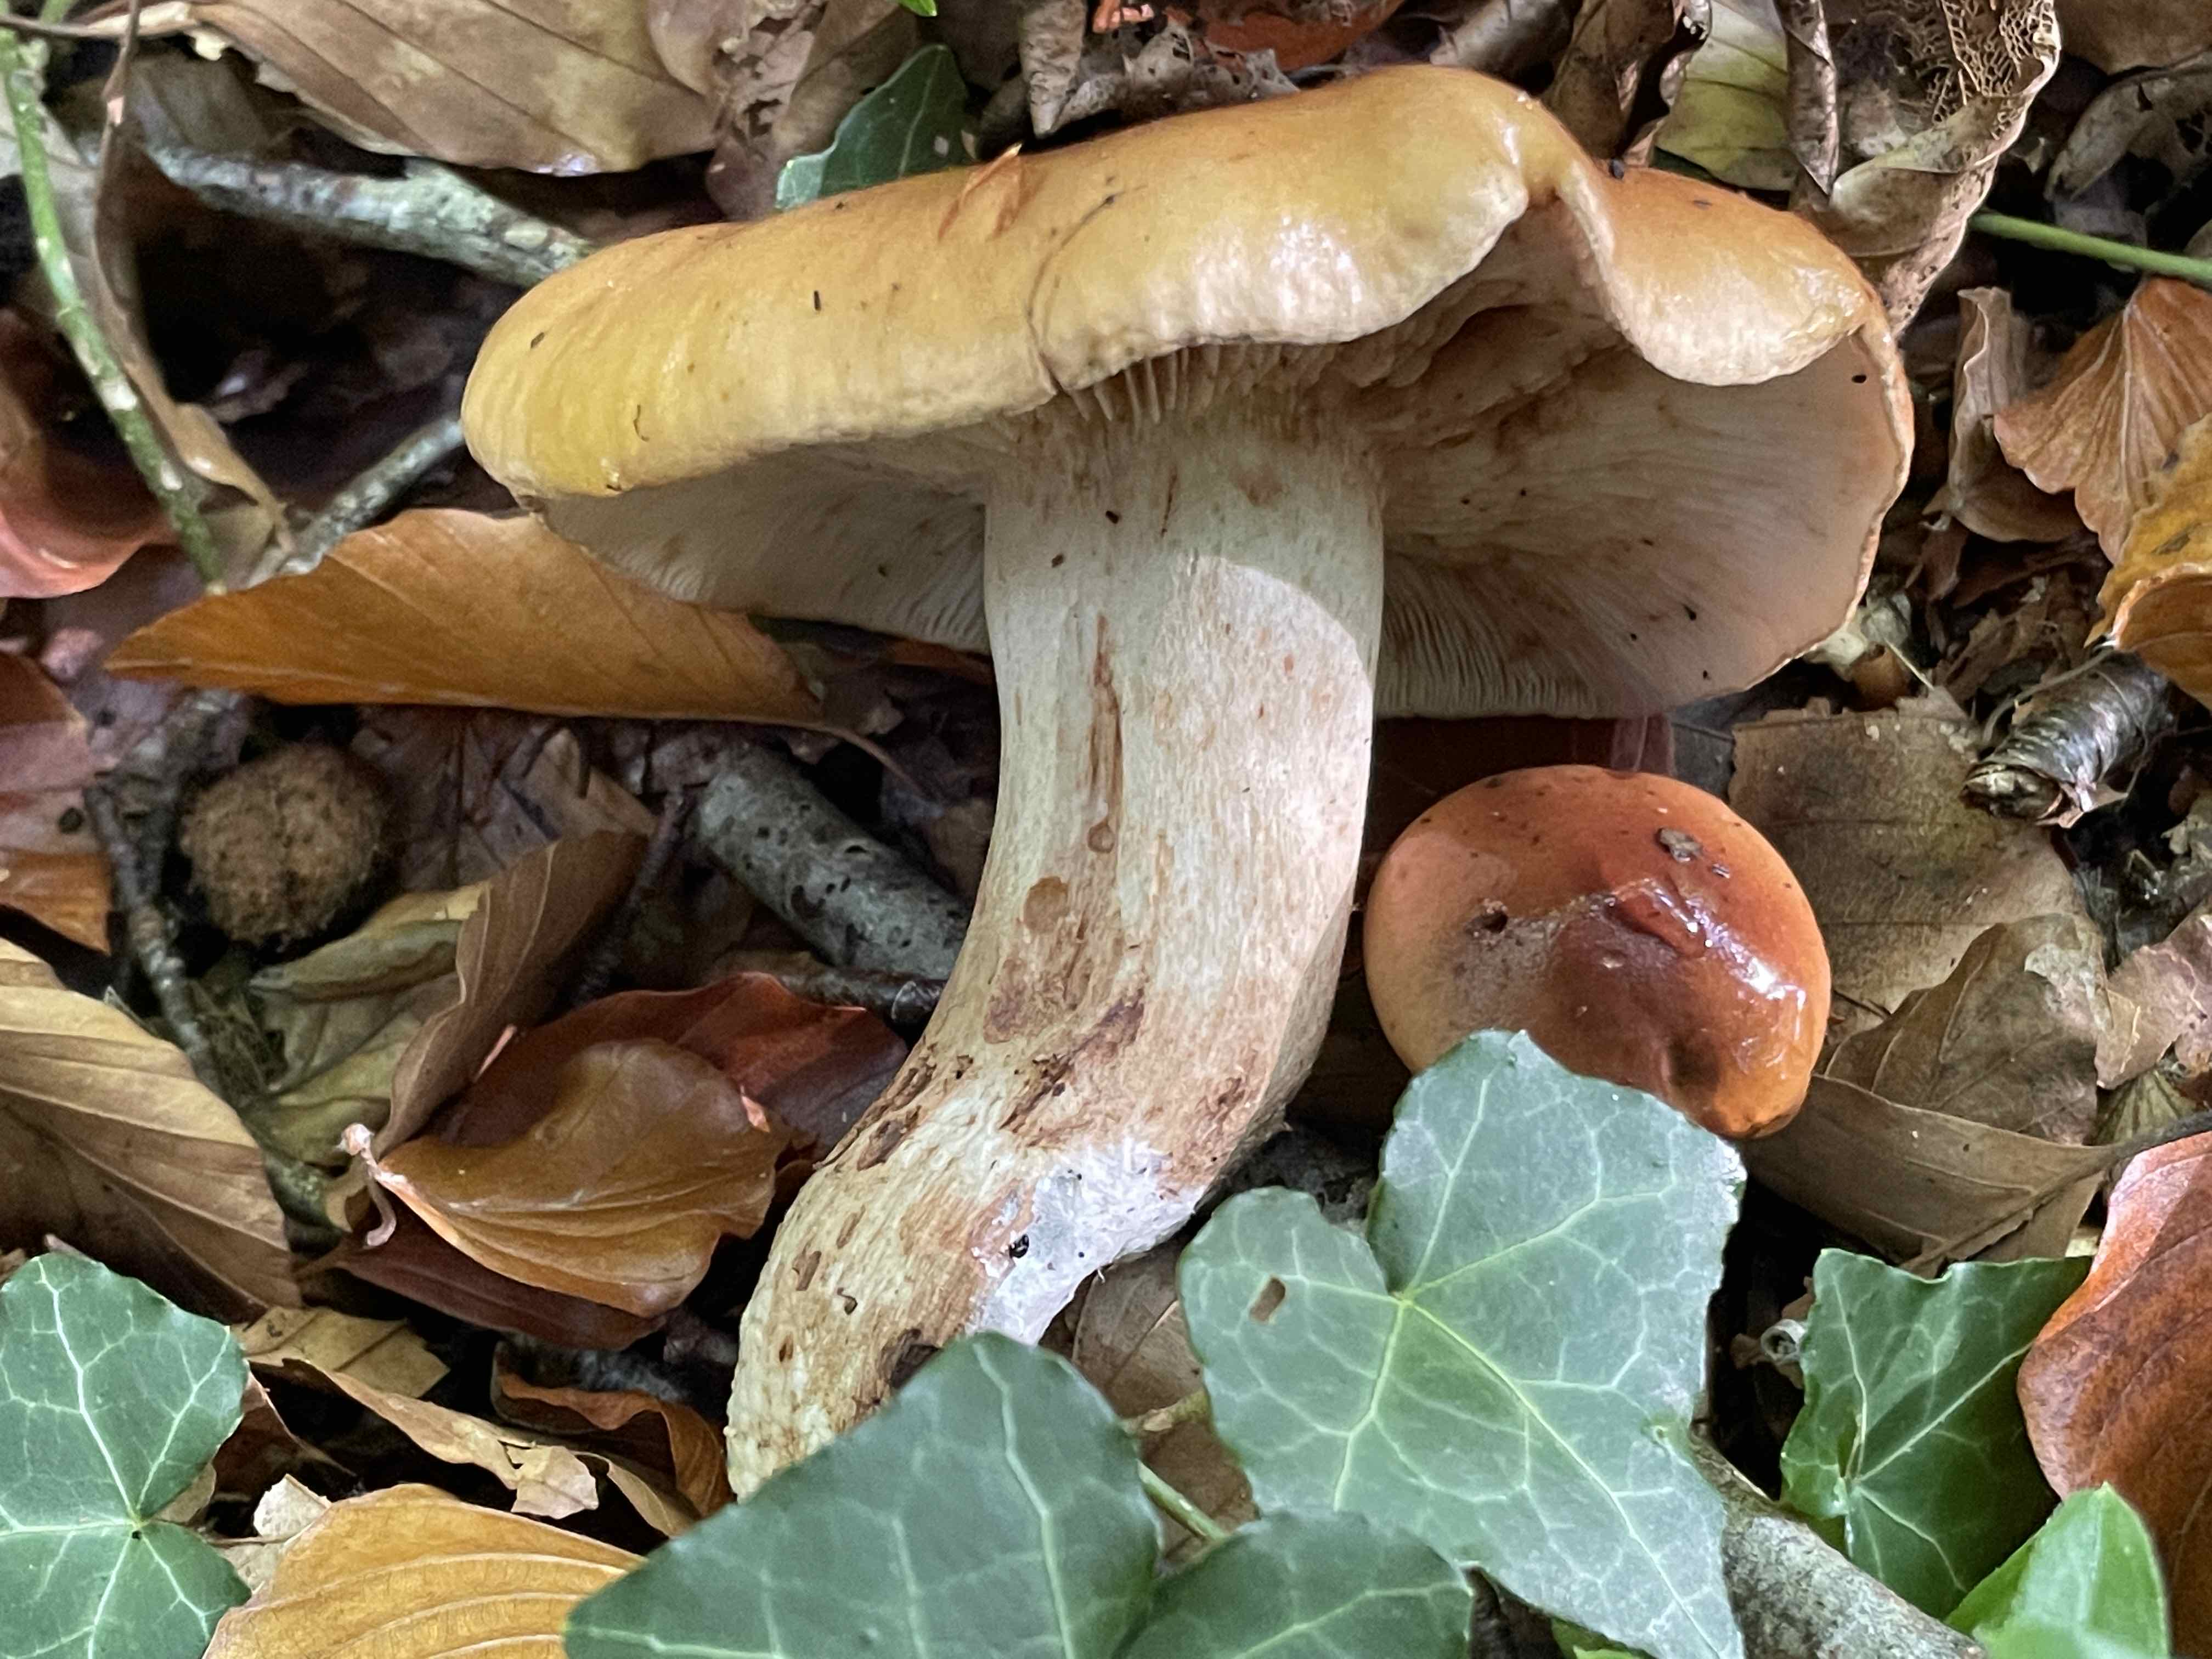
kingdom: Fungi
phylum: Basidiomycota
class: Agaricomycetes
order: Agaricales
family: Tricholomataceae
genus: Tricholoma
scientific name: Tricholoma ustale
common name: sveden ridderhat
